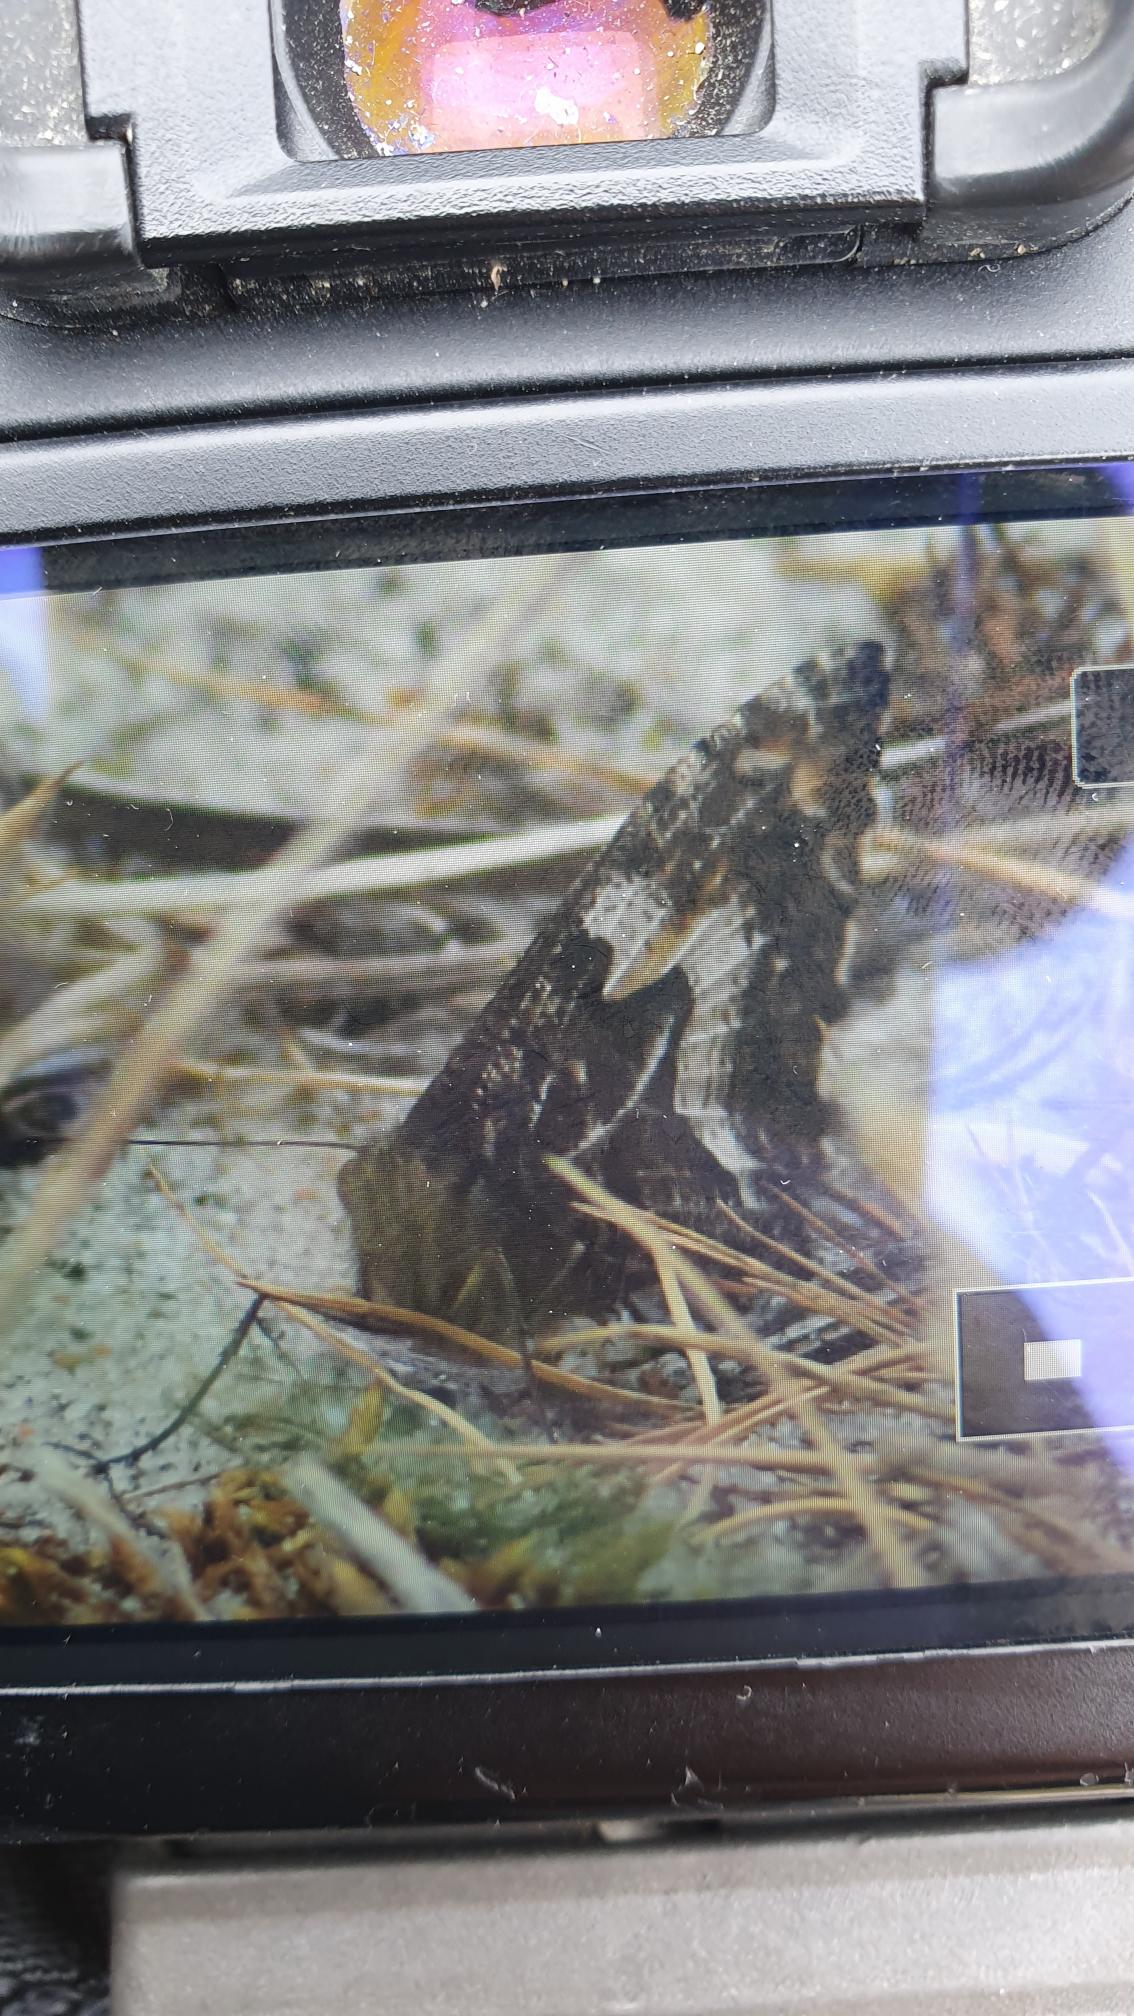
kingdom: Animalia
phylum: Arthropoda
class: Insecta
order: Lepidoptera
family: Nymphalidae
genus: Hipparchia
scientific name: Hipparchia semele
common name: Sandrandøje
